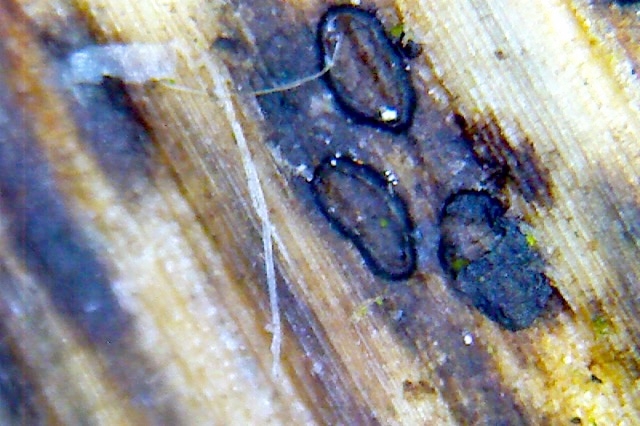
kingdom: Fungi
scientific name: Fungi
